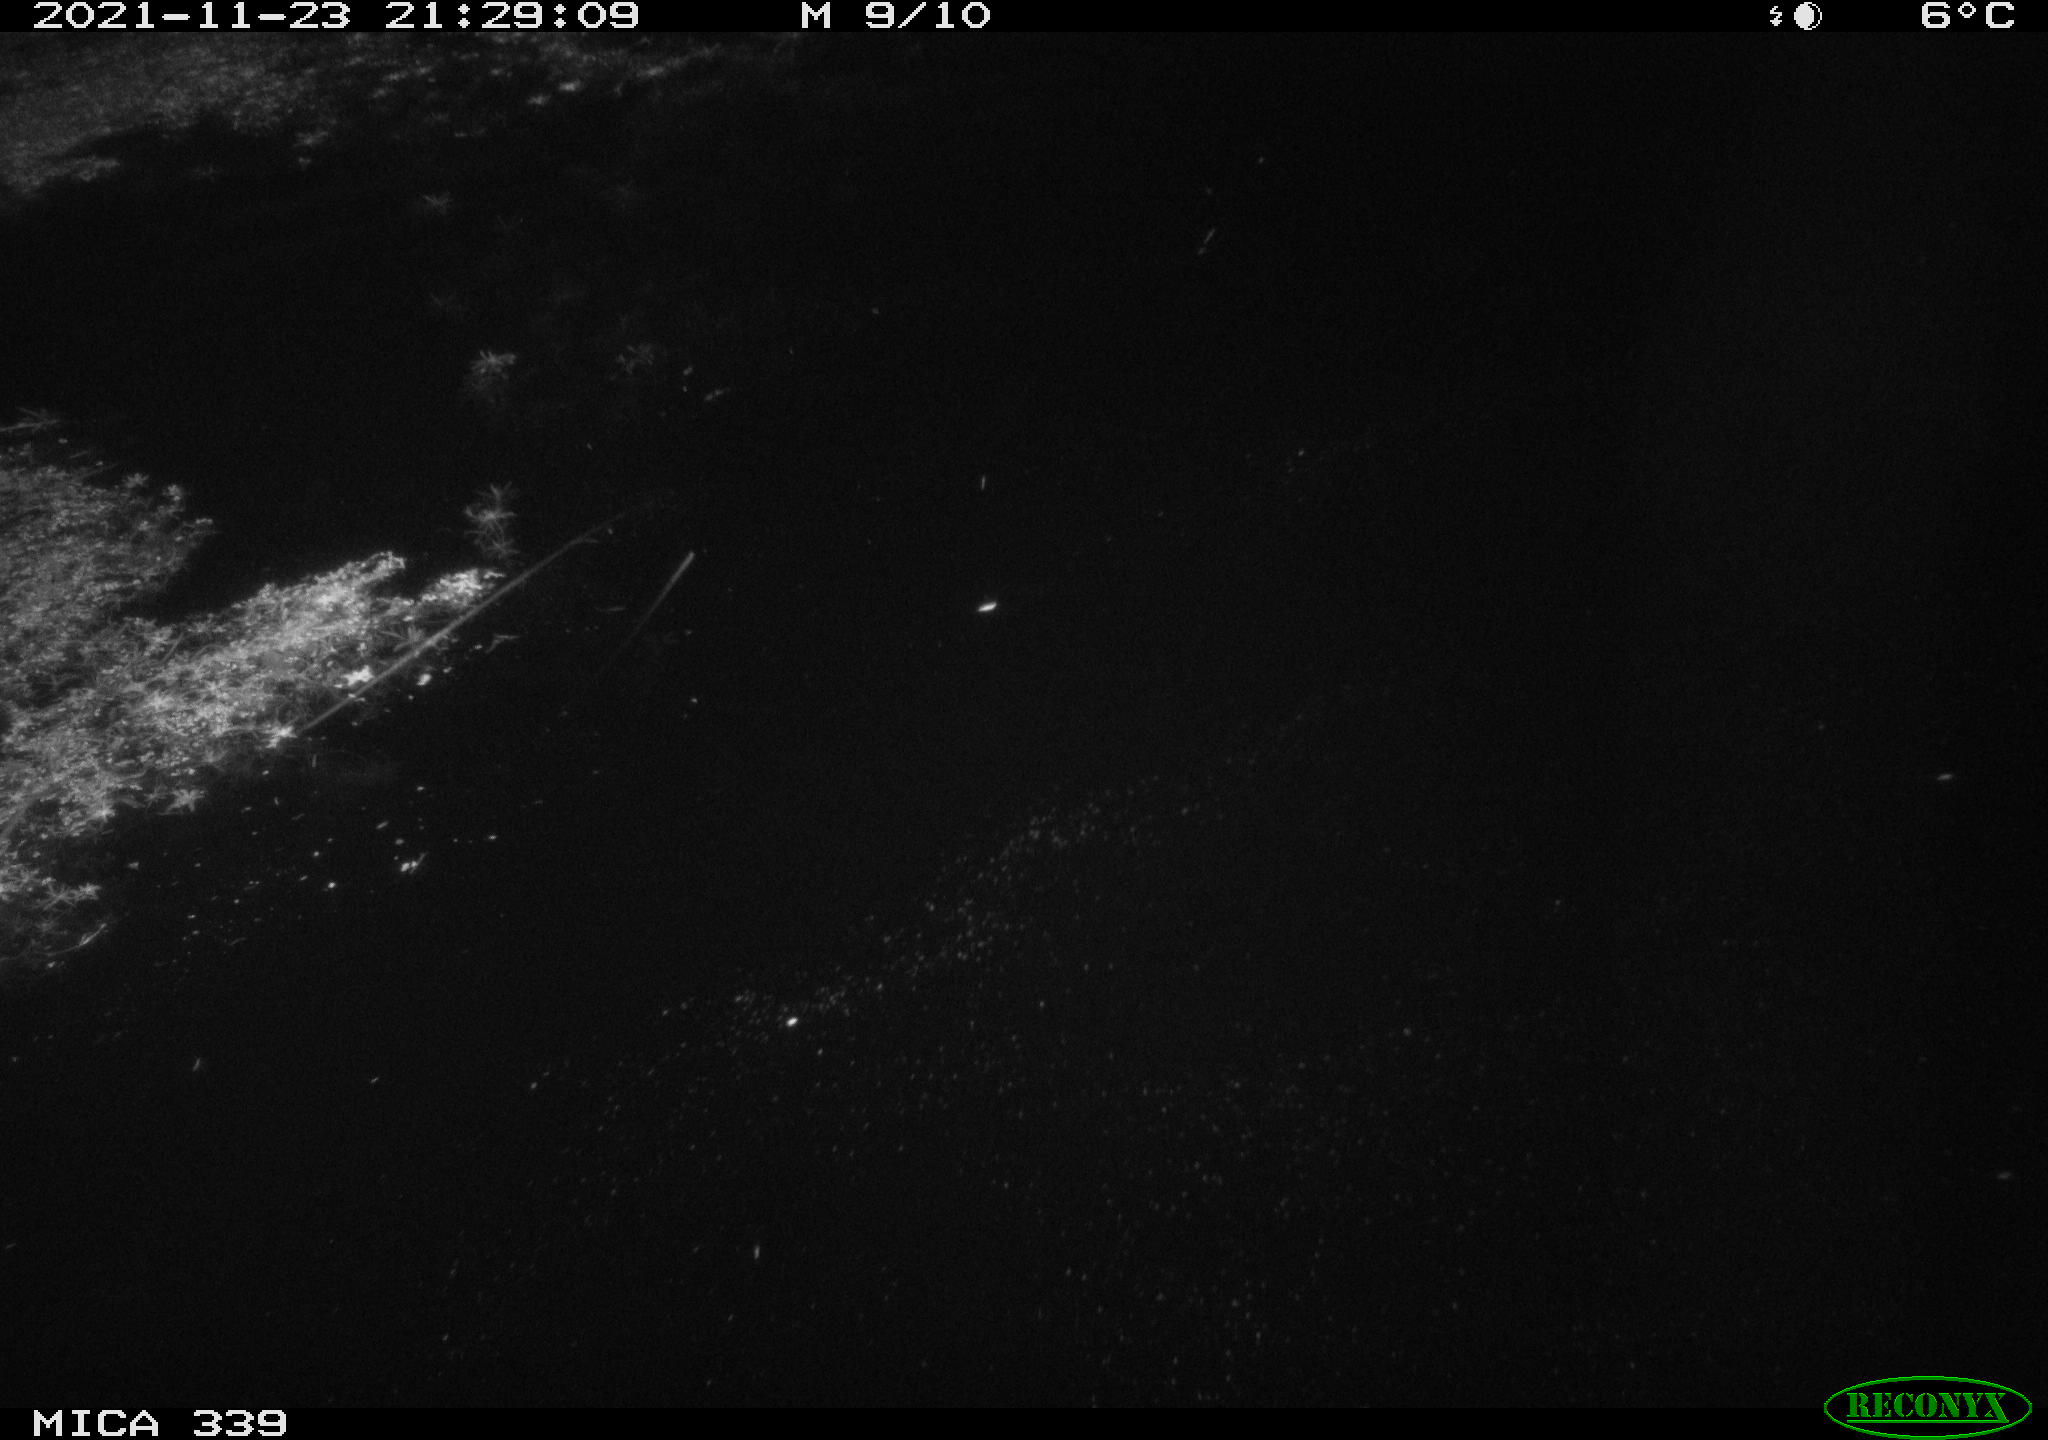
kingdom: Animalia
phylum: Chordata
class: Mammalia
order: Rodentia
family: Muridae
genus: Rattus
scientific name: Rattus norvegicus
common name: Brown rat
